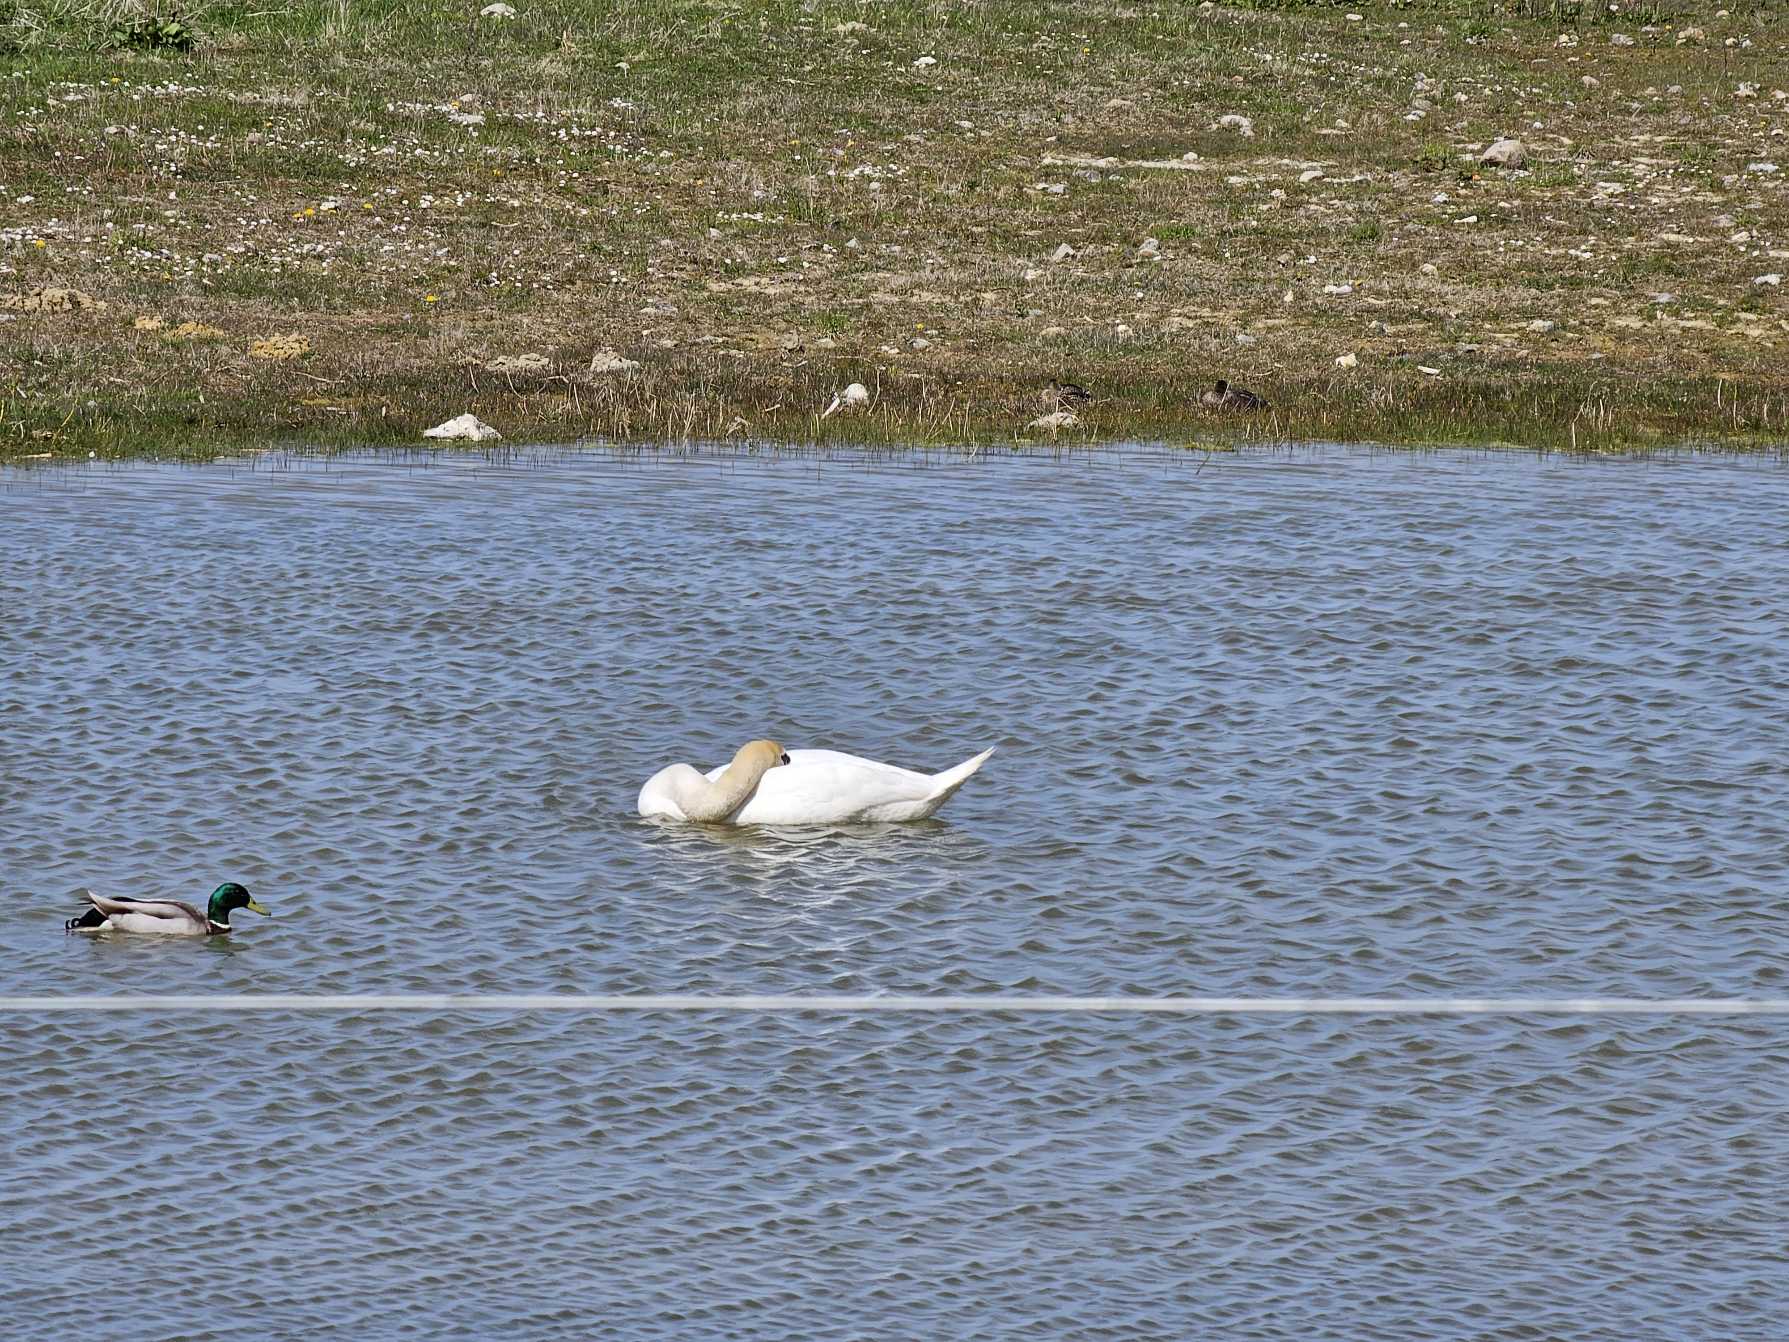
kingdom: Animalia
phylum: Chordata
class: Aves
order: Anseriformes
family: Anatidae
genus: Cygnus
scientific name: Cygnus olor
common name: Knopsvane
